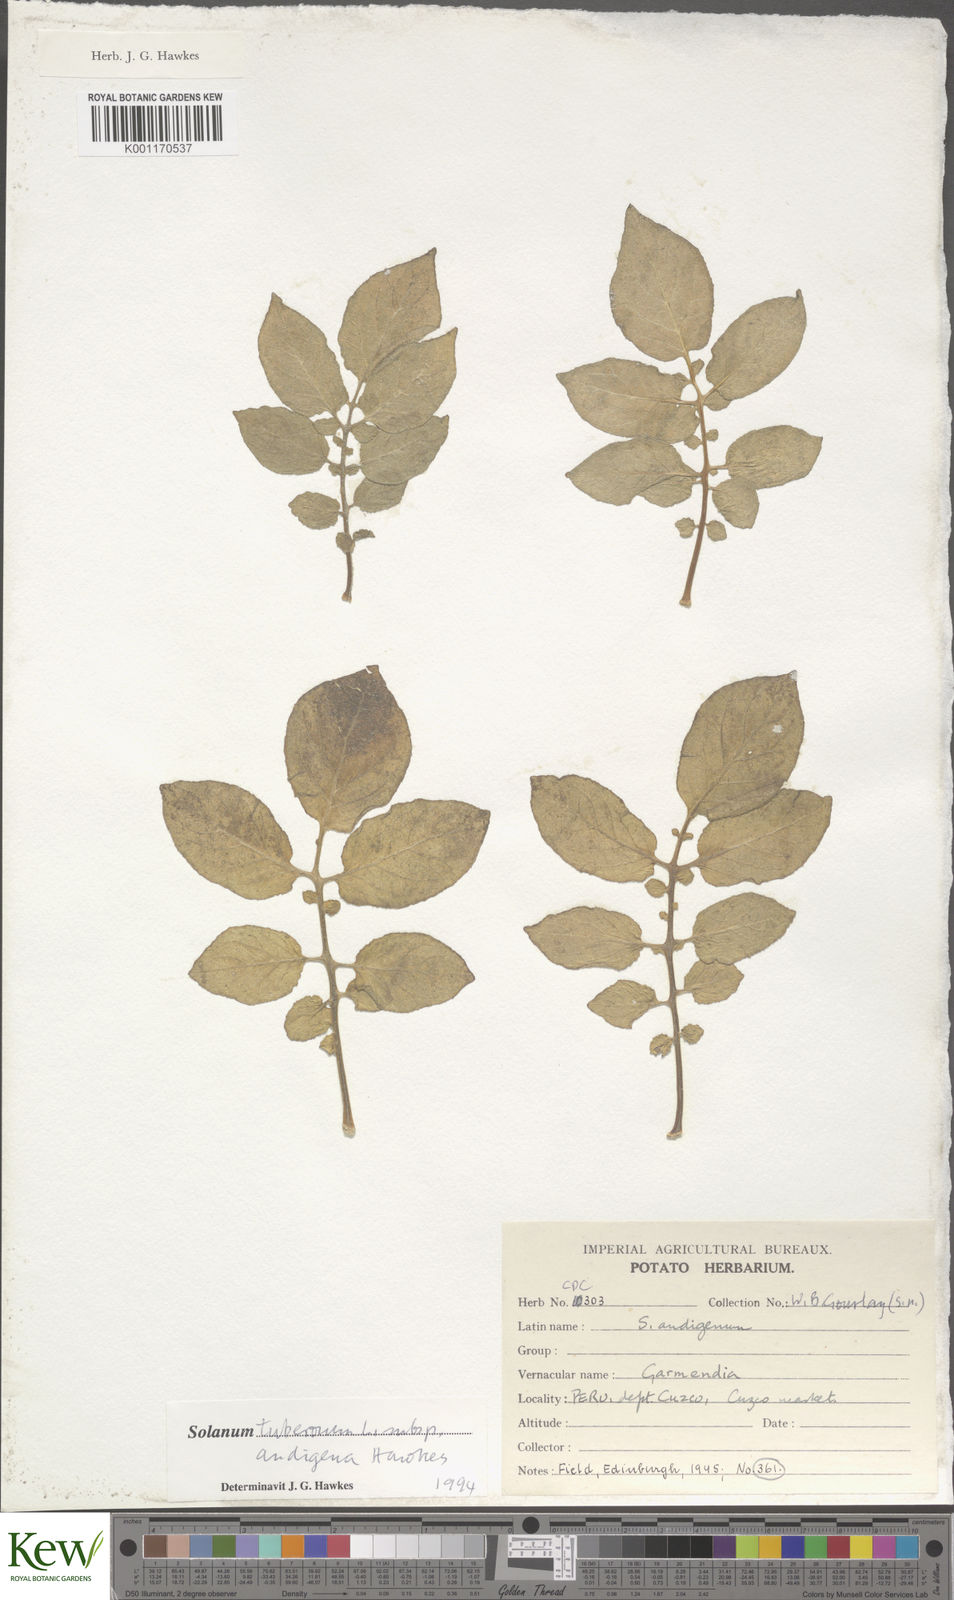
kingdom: Plantae
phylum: Tracheophyta
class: Magnoliopsida
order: Solanales
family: Solanaceae
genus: Solanum
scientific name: Solanum tuberosum
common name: Potato
